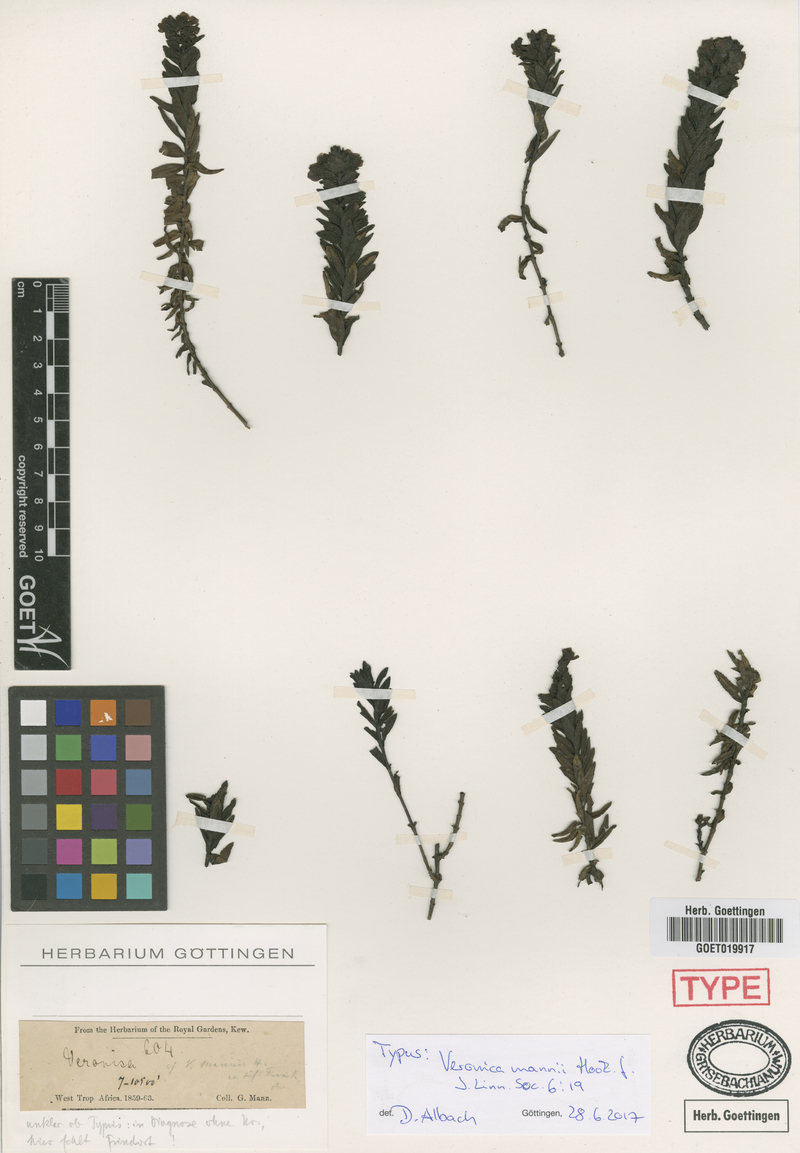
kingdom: Plantae
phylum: Tracheophyta
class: Magnoliopsida
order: Lamiales
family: Plantaginaceae
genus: Veronica
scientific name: Veronica mannii
